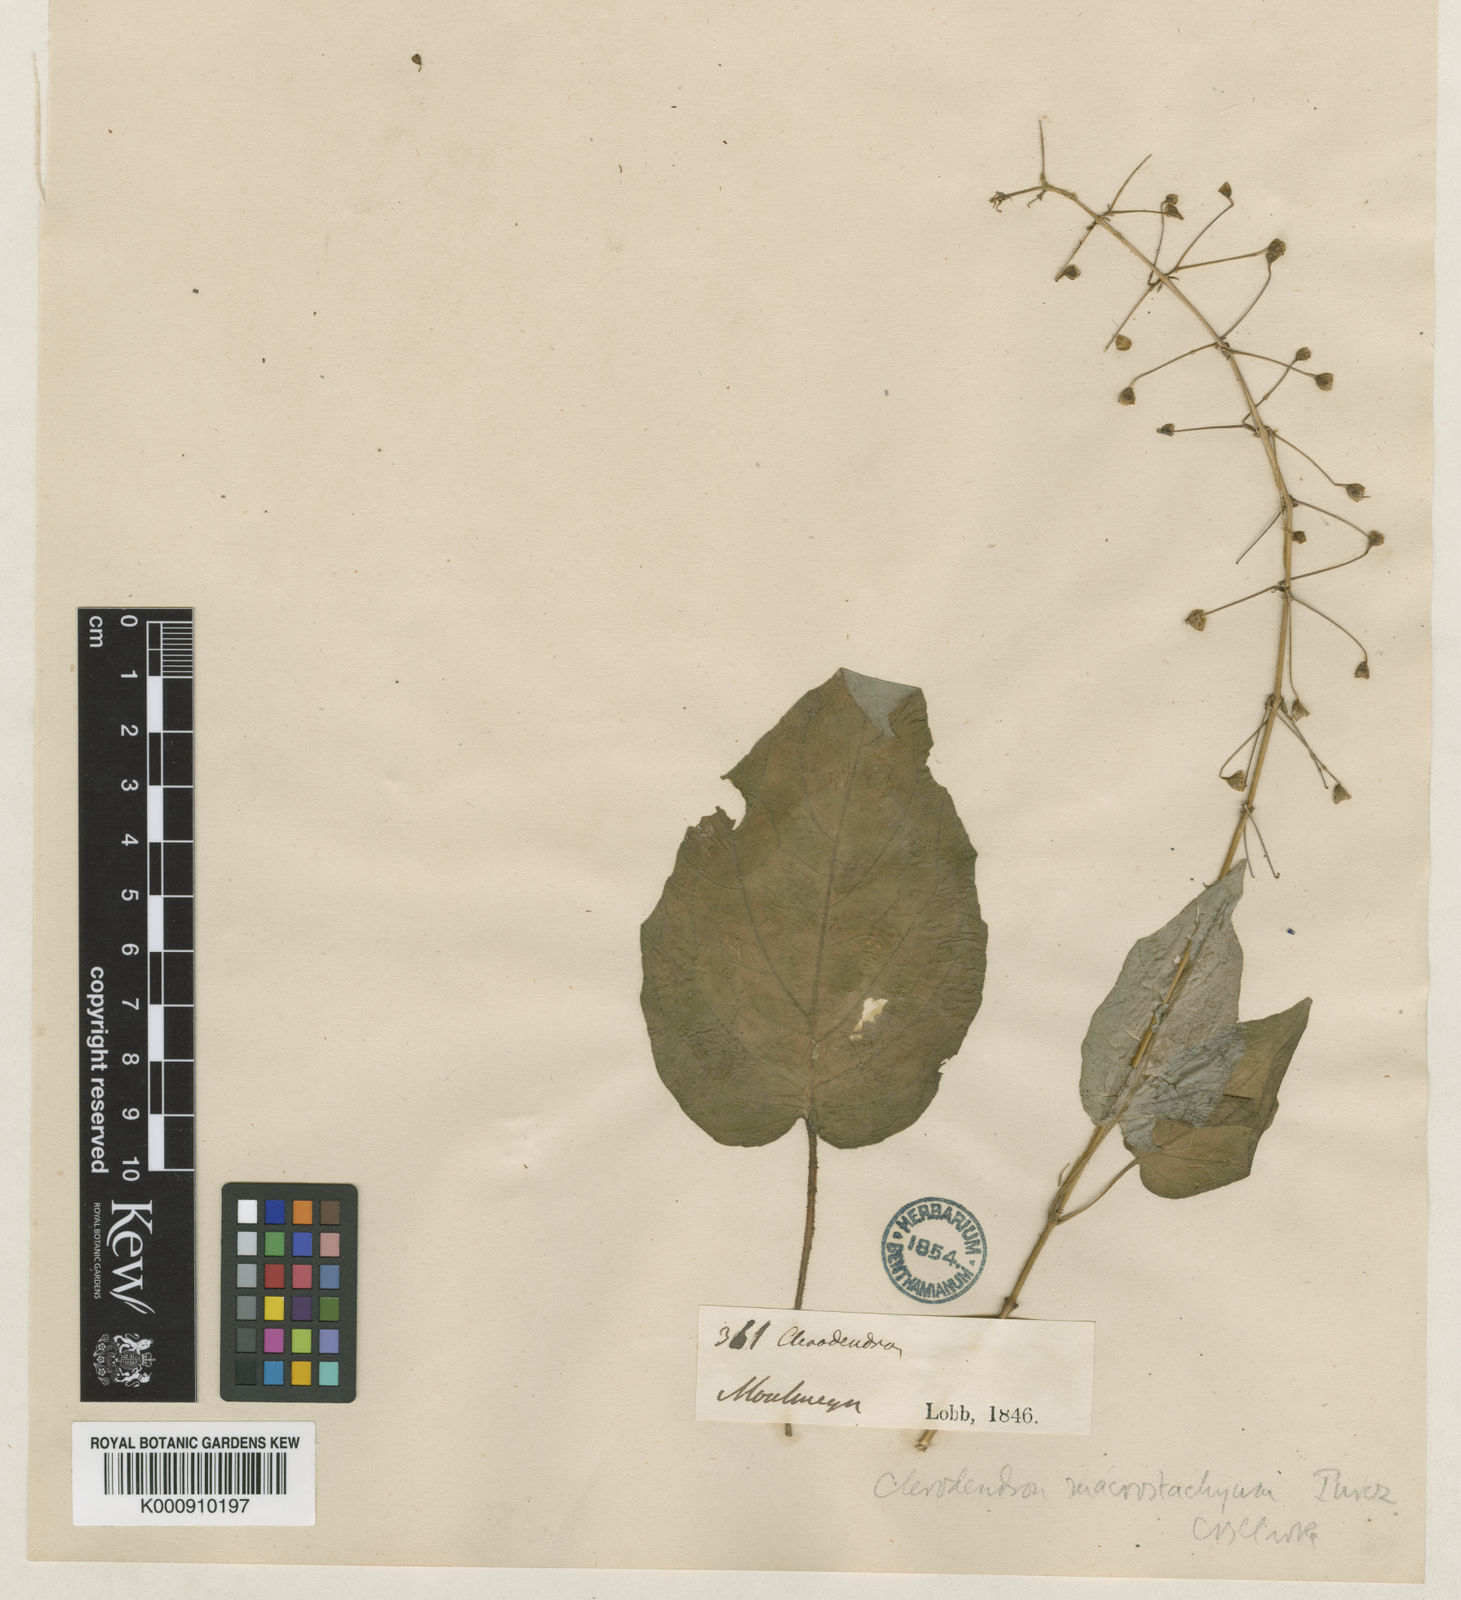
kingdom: Plantae
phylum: Tracheophyta
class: Magnoliopsida
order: Lamiales
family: Lamiaceae
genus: Rotheca
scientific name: Rotheca macrostachya
